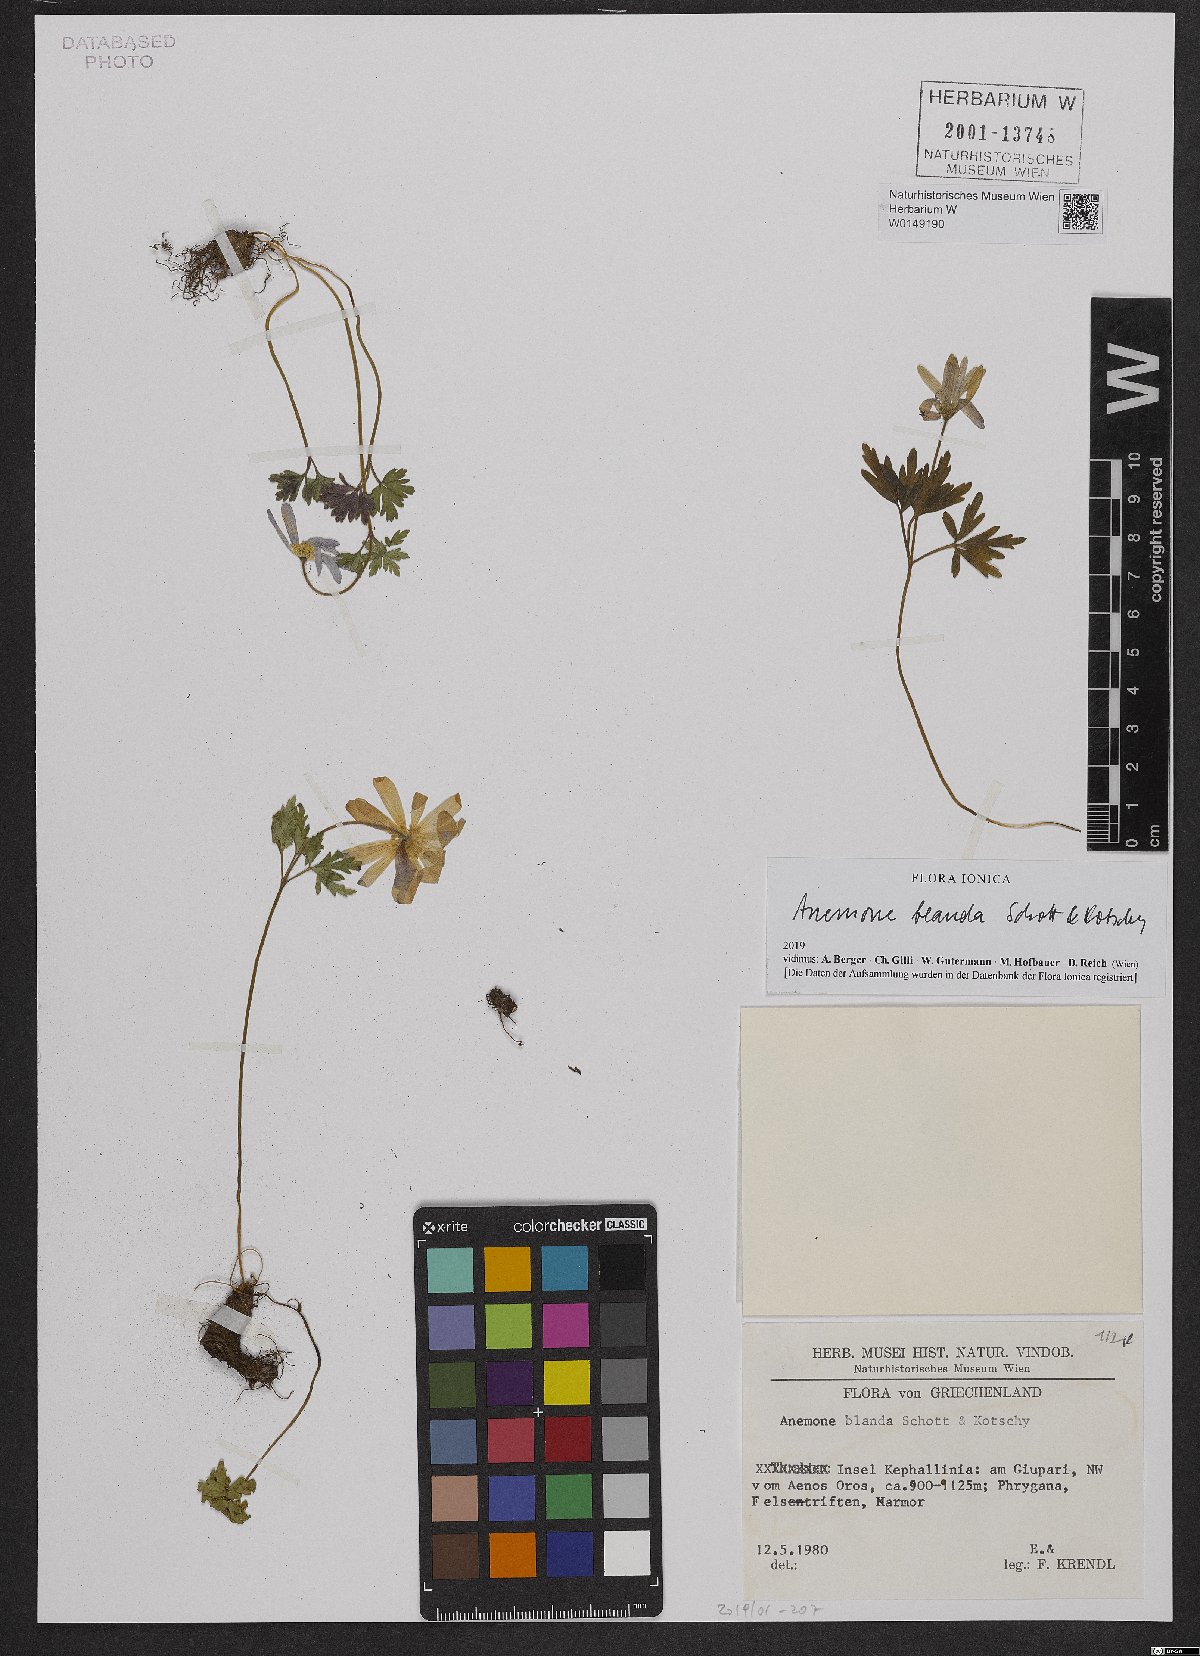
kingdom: Plantae
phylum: Tracheophyta
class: Magnoliopsida
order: Ranunculales
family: Ranunculaceae
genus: Anemone
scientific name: Anemone blanda
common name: Balkan anemone
